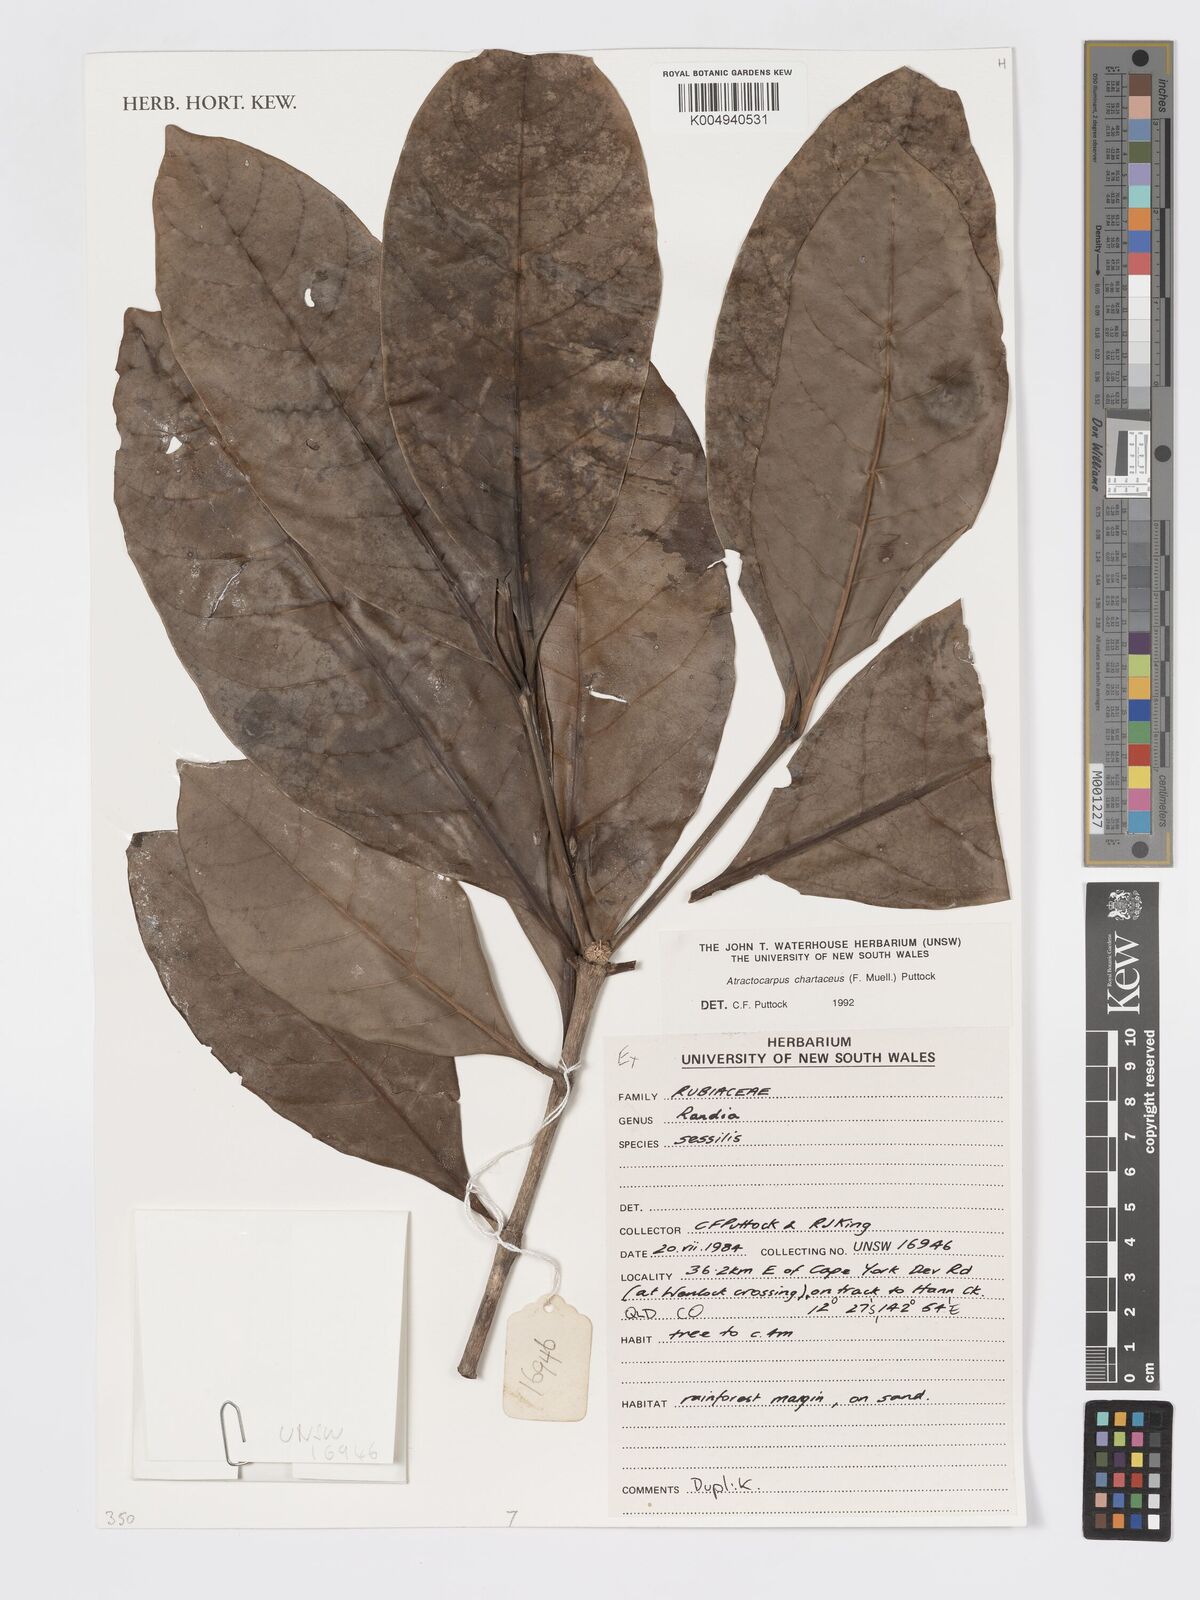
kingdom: Plantae
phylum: Tracheophyta
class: Magnoliopsida
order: Gentianales
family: Rubiaceae
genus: Atractocarpus
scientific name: Atractocarpus chartaceus
